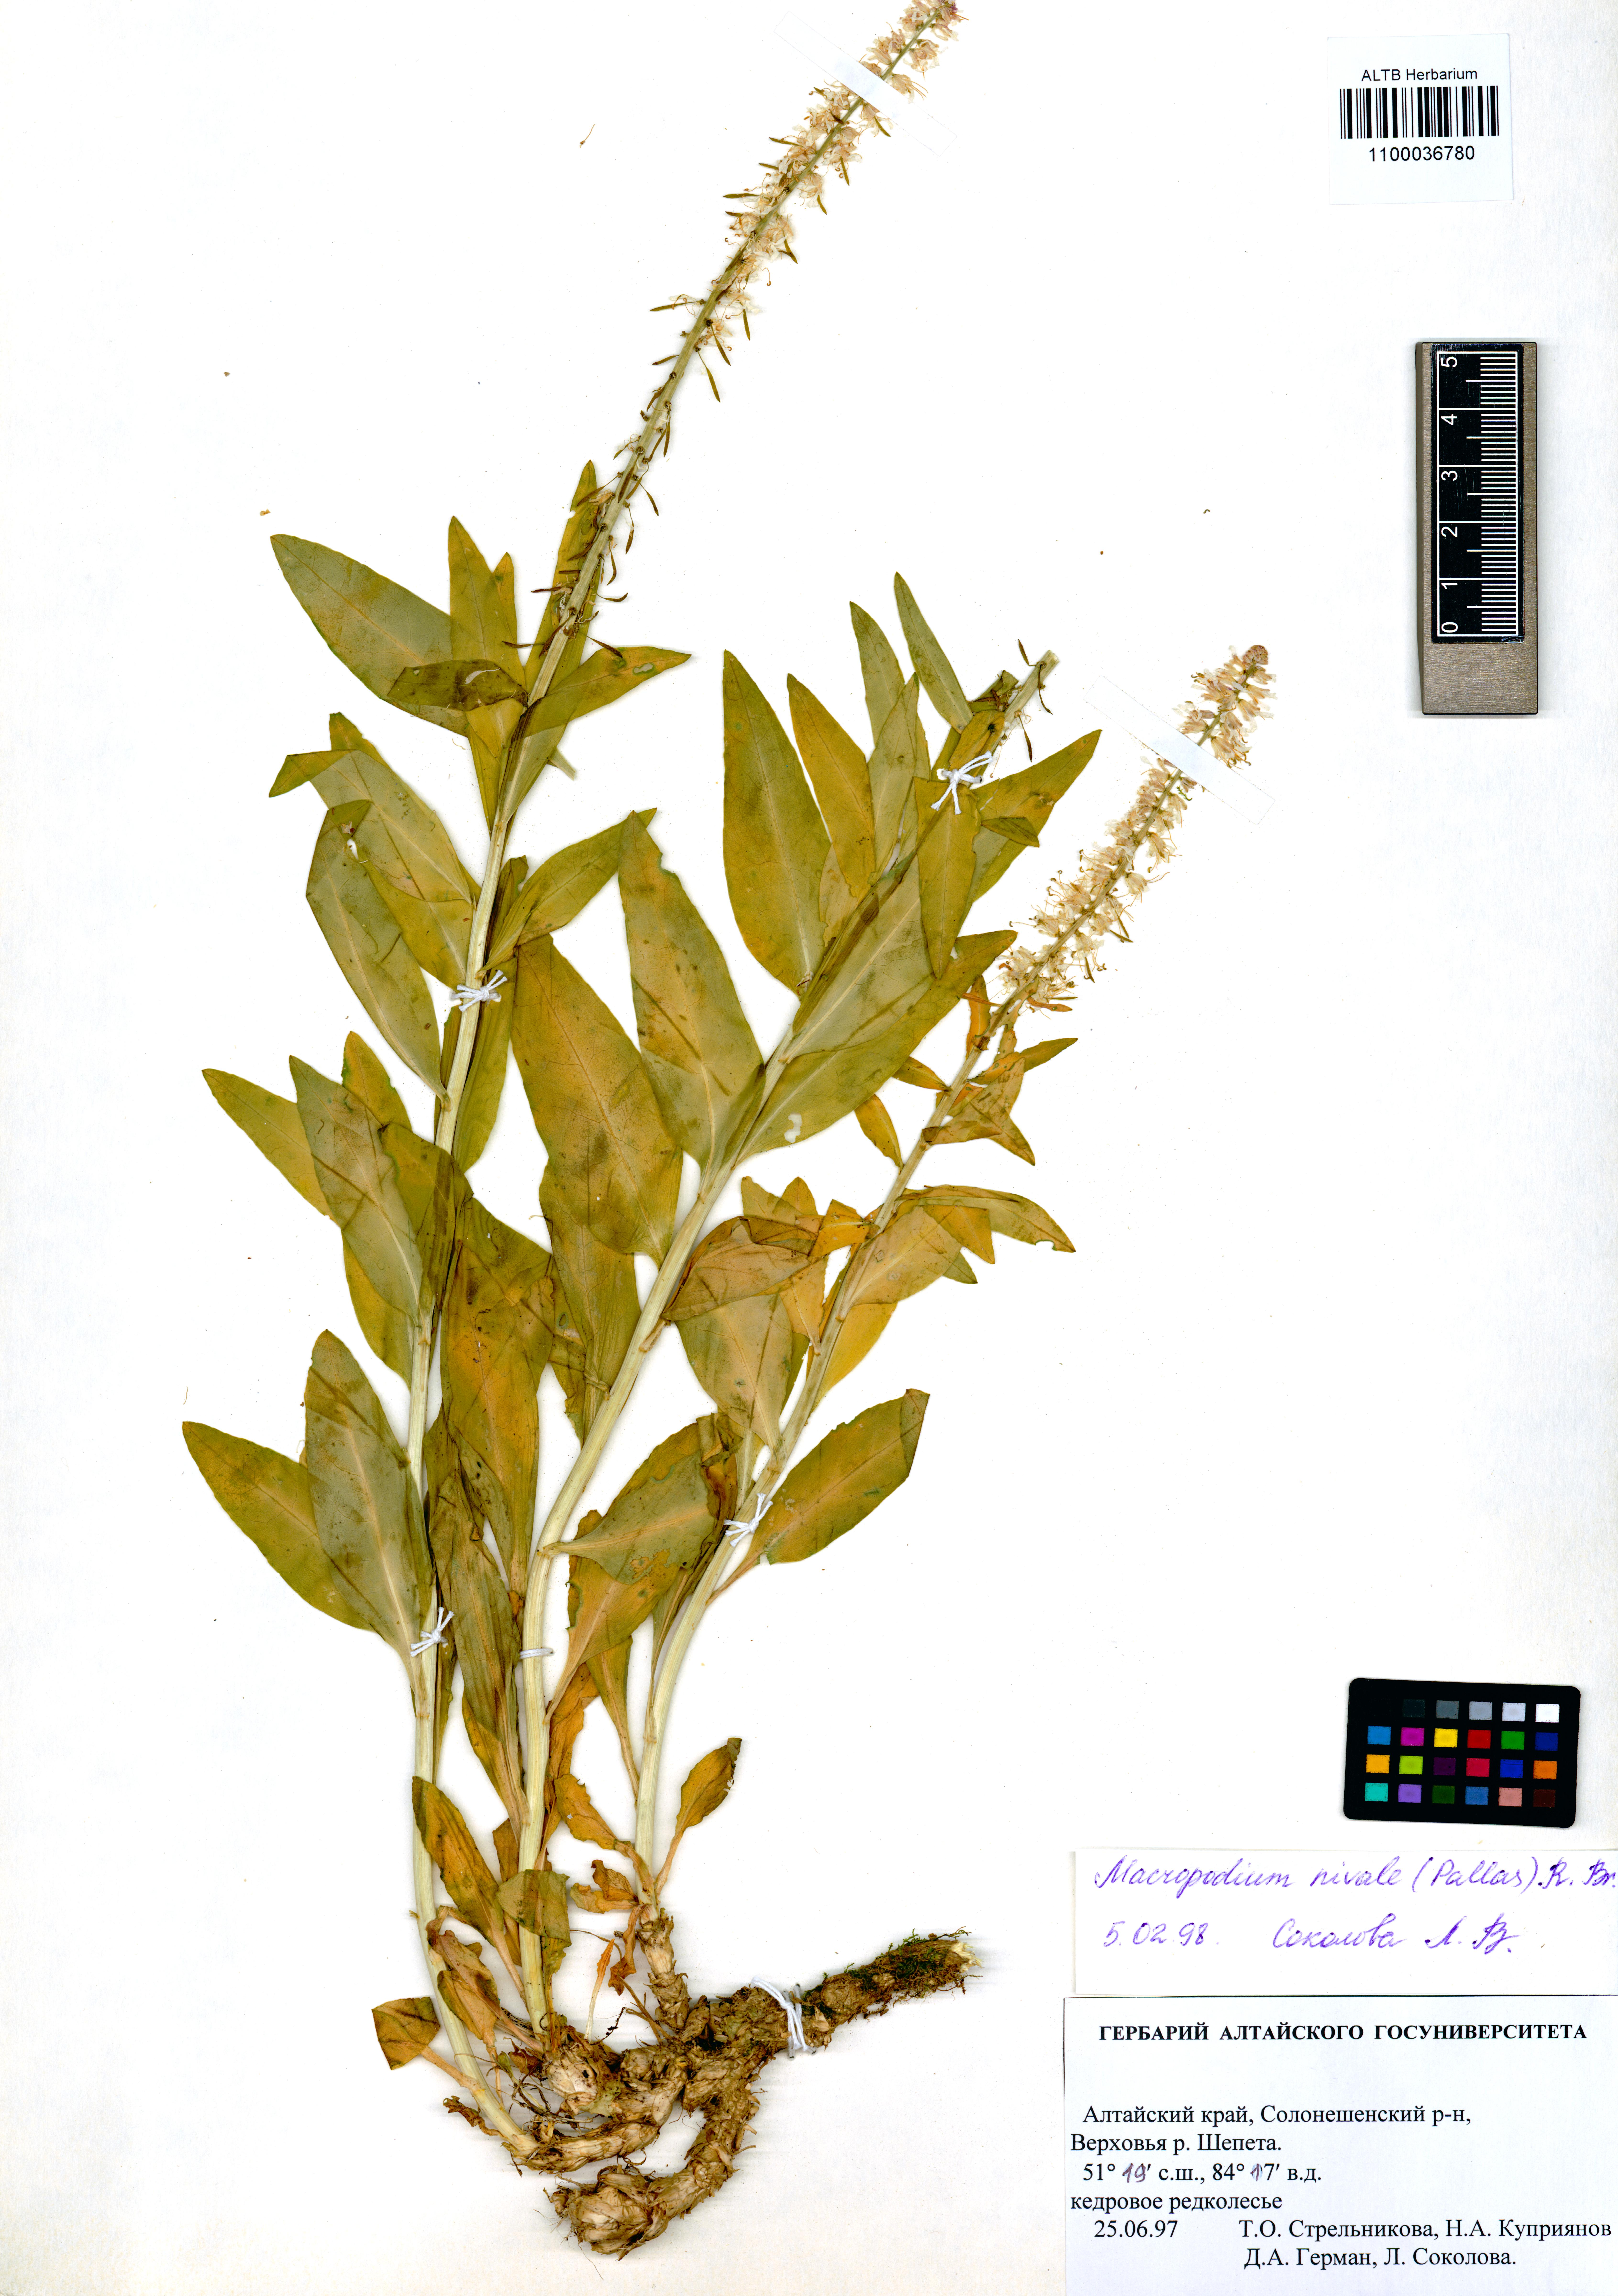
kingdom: Plantae
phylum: Tracheophyta
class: Magnoliopsida
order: Brassicales
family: Brassicaceae
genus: Macropodium
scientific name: Macropodium nivale
